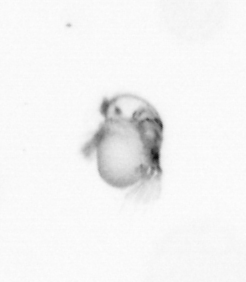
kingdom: Animalia
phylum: Annelida
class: Polychaeta
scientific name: Polychaeta
